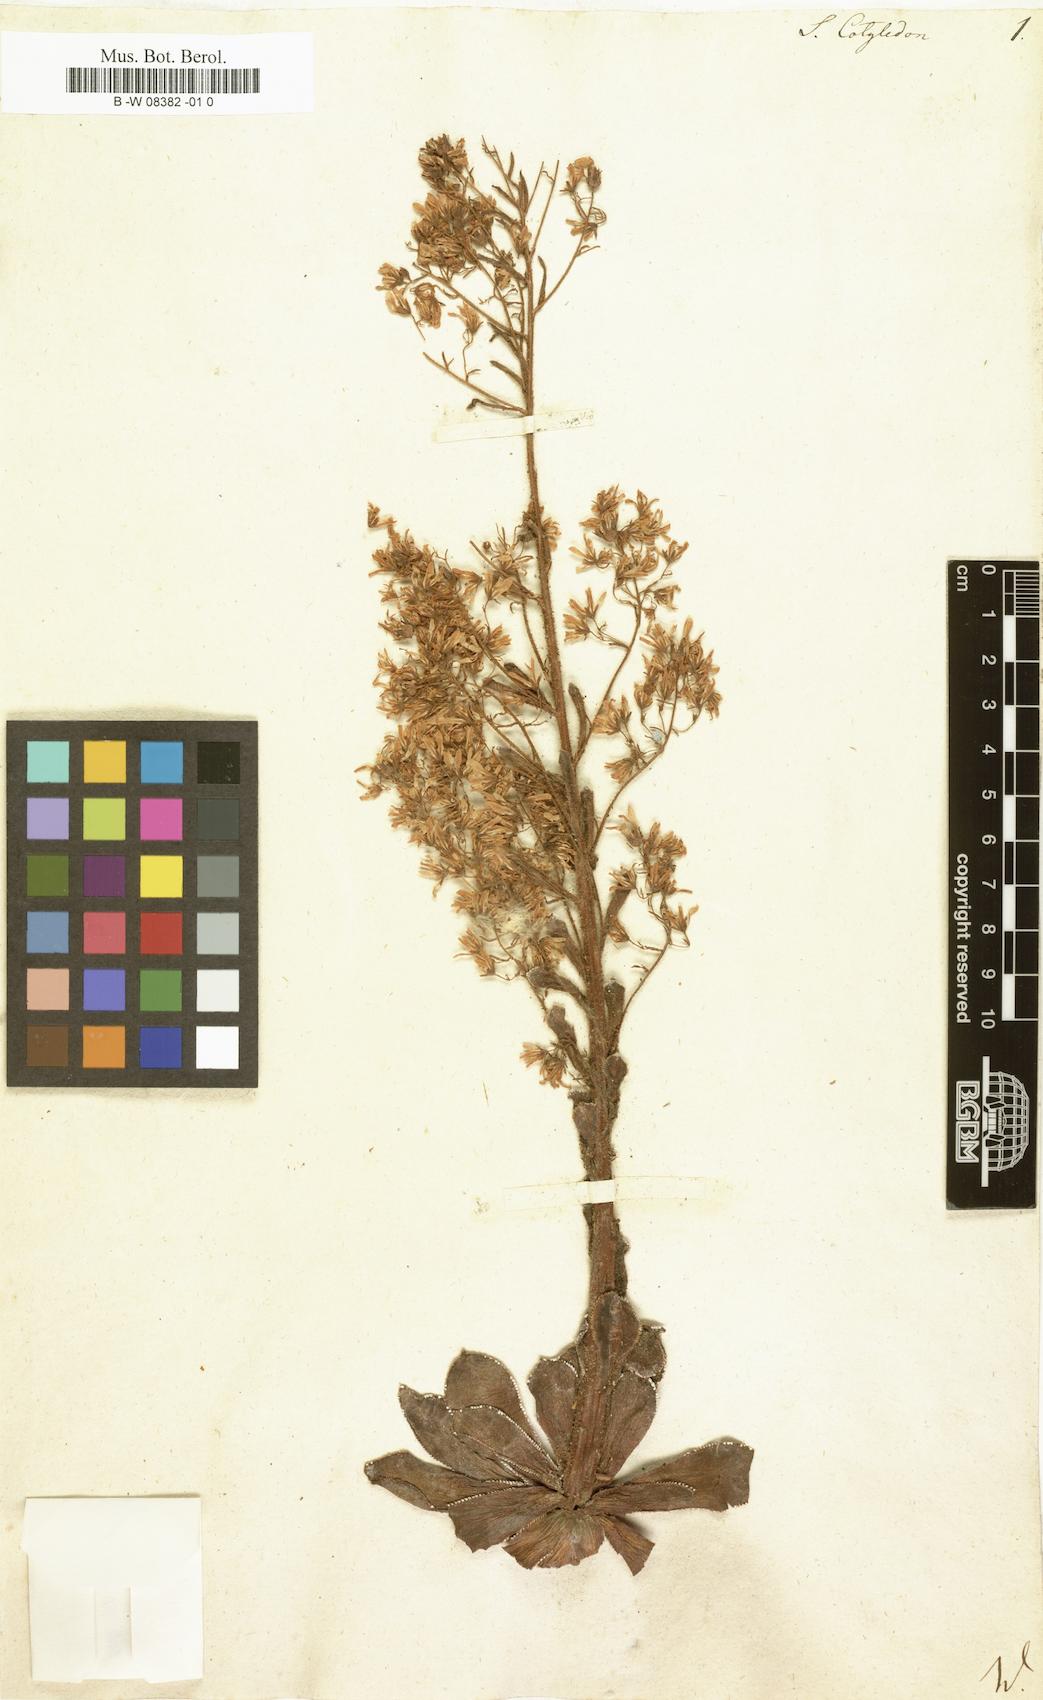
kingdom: Plantae
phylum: Tracheophyta
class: Magnoliopsida
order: Saxifragales
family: Saxifragaceae
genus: Saxifraga
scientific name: Saxifraga cotyledon
